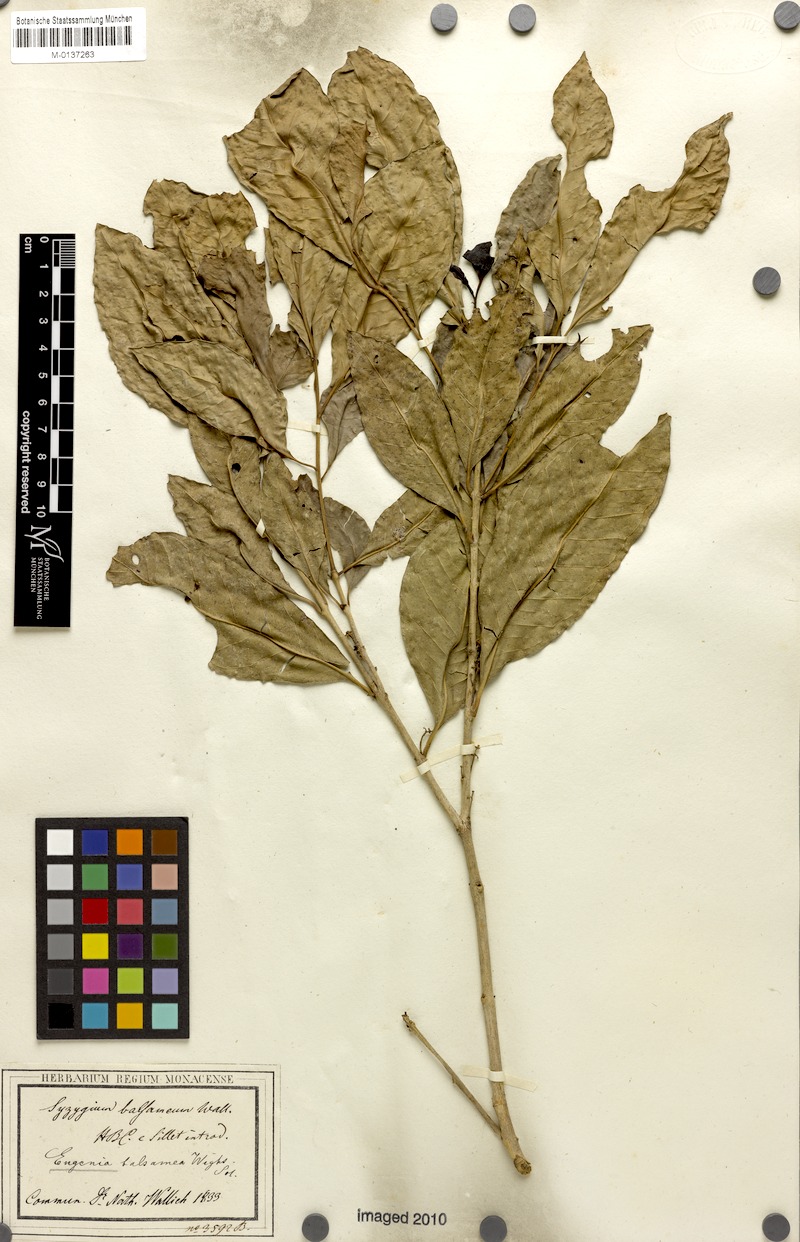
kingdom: Plantae
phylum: Tracheophyta
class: Magnoliopsida
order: Myrtales
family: Myrtaceae
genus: Syzygium
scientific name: Syzygium balsameum
